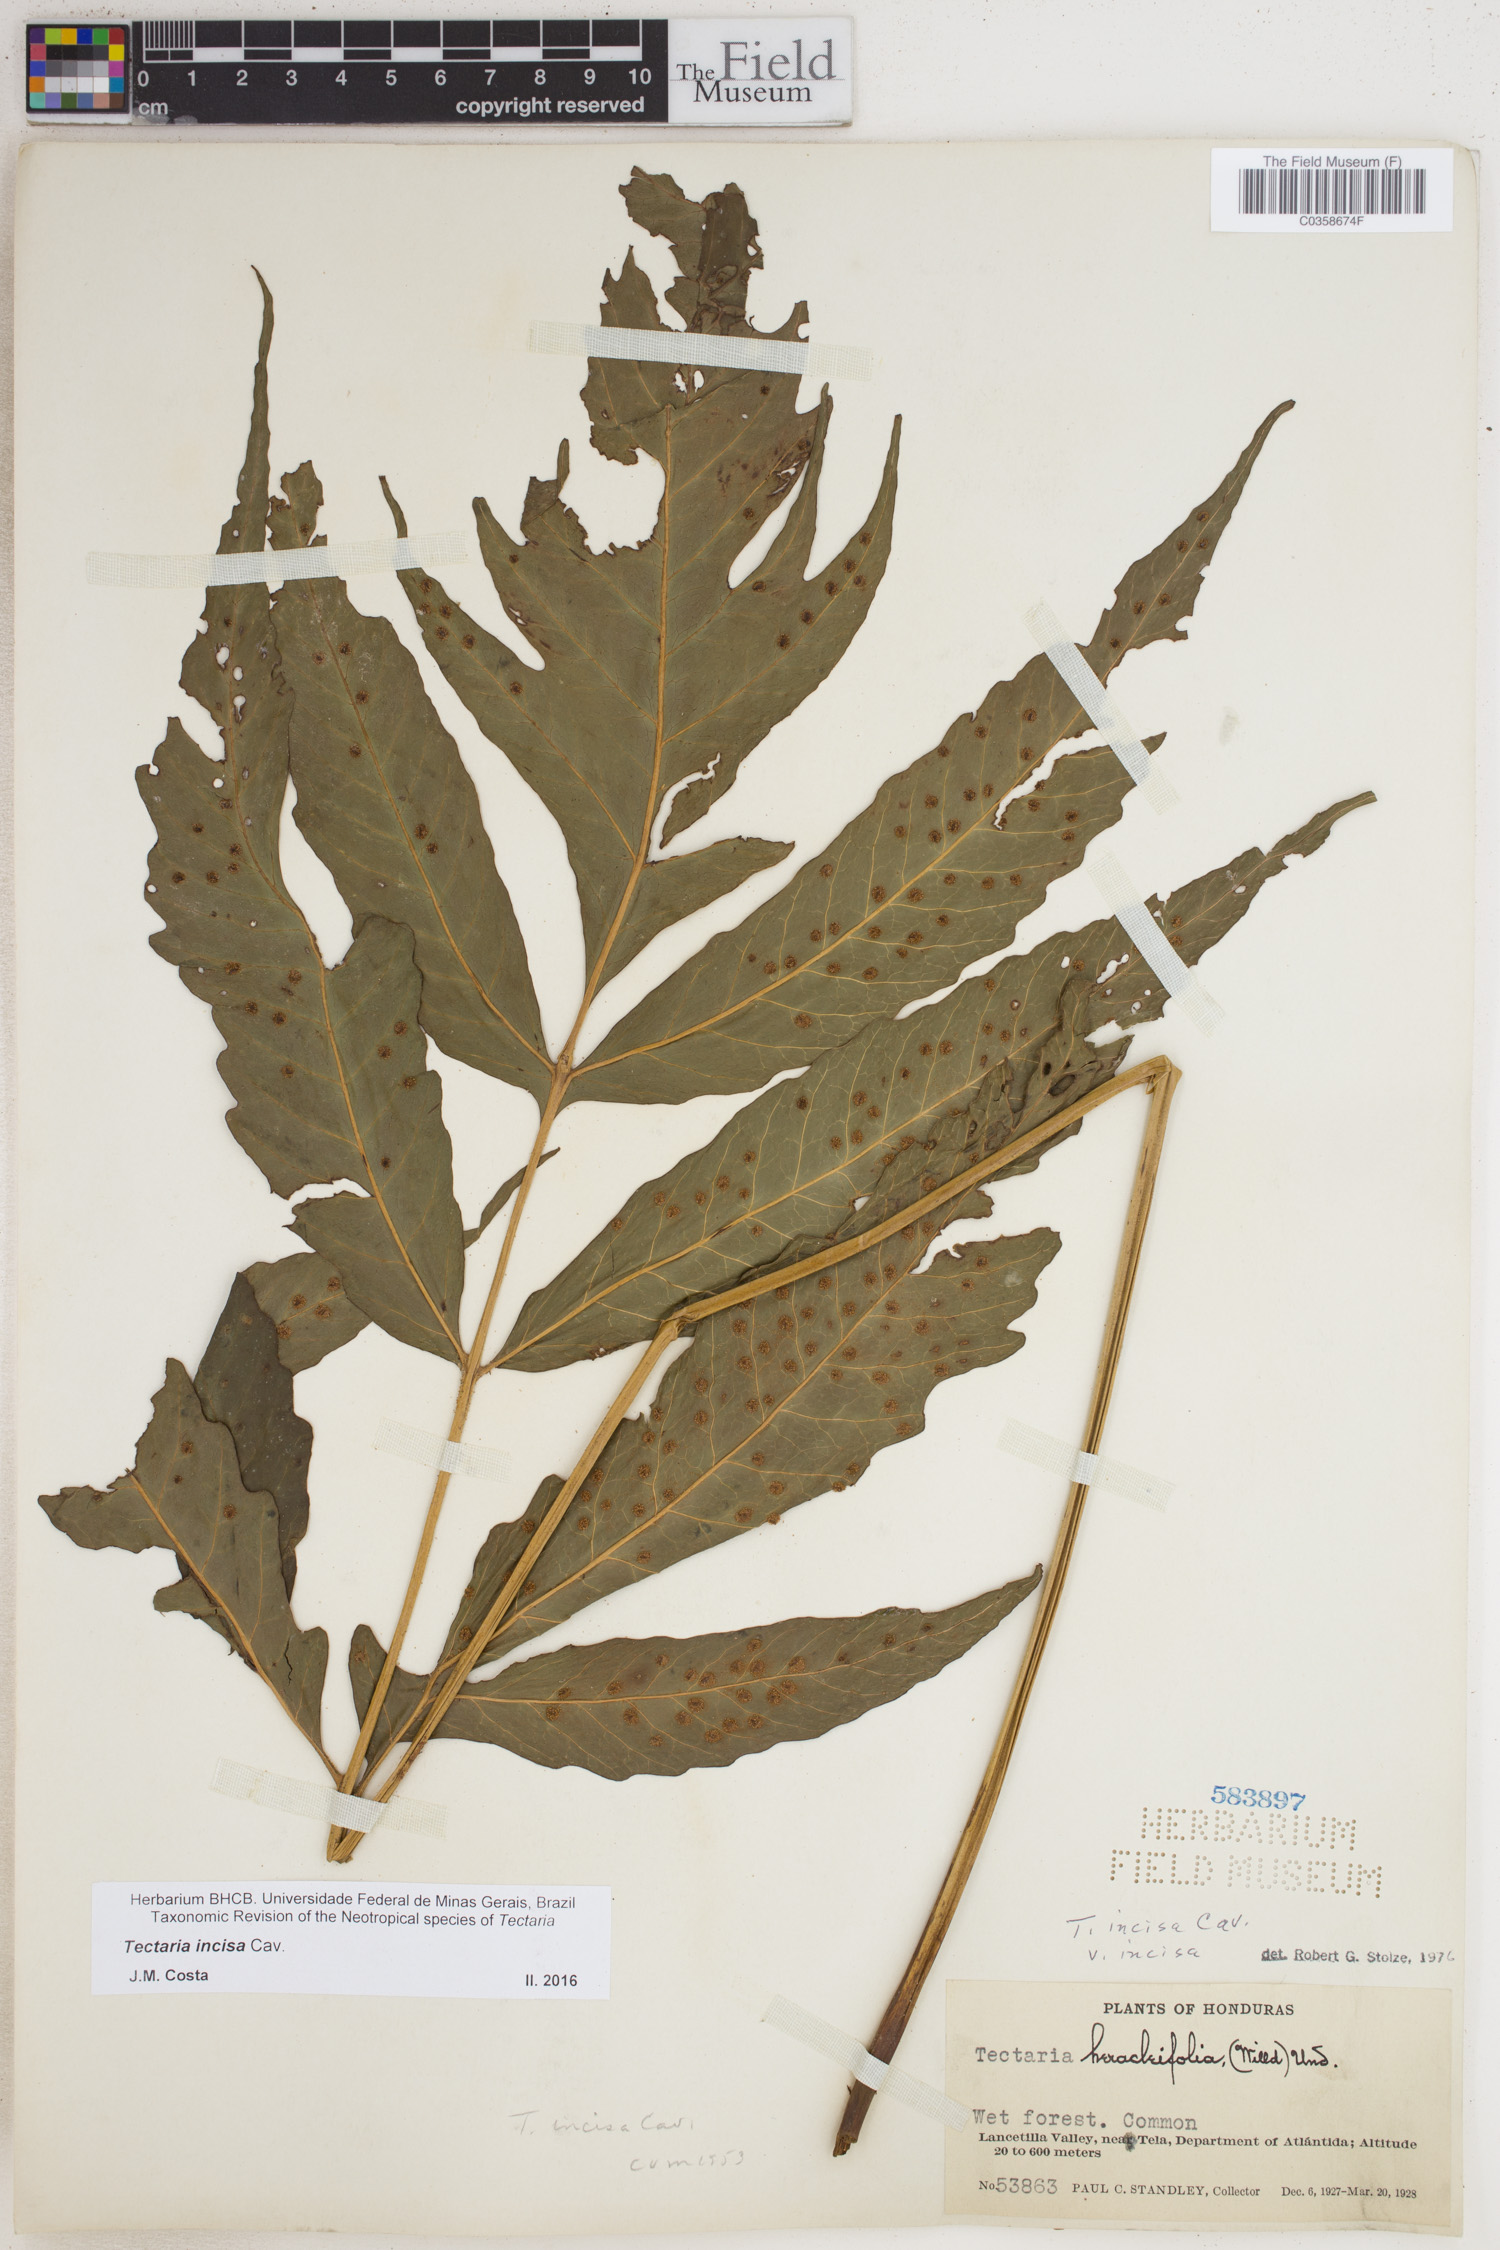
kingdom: Plantae
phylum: Tracheophyta
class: Polypodiopsida
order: Polypodiales
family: Tectariaceae
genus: Tectaria
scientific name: Tectaria incisa
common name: Incised halberd fern
